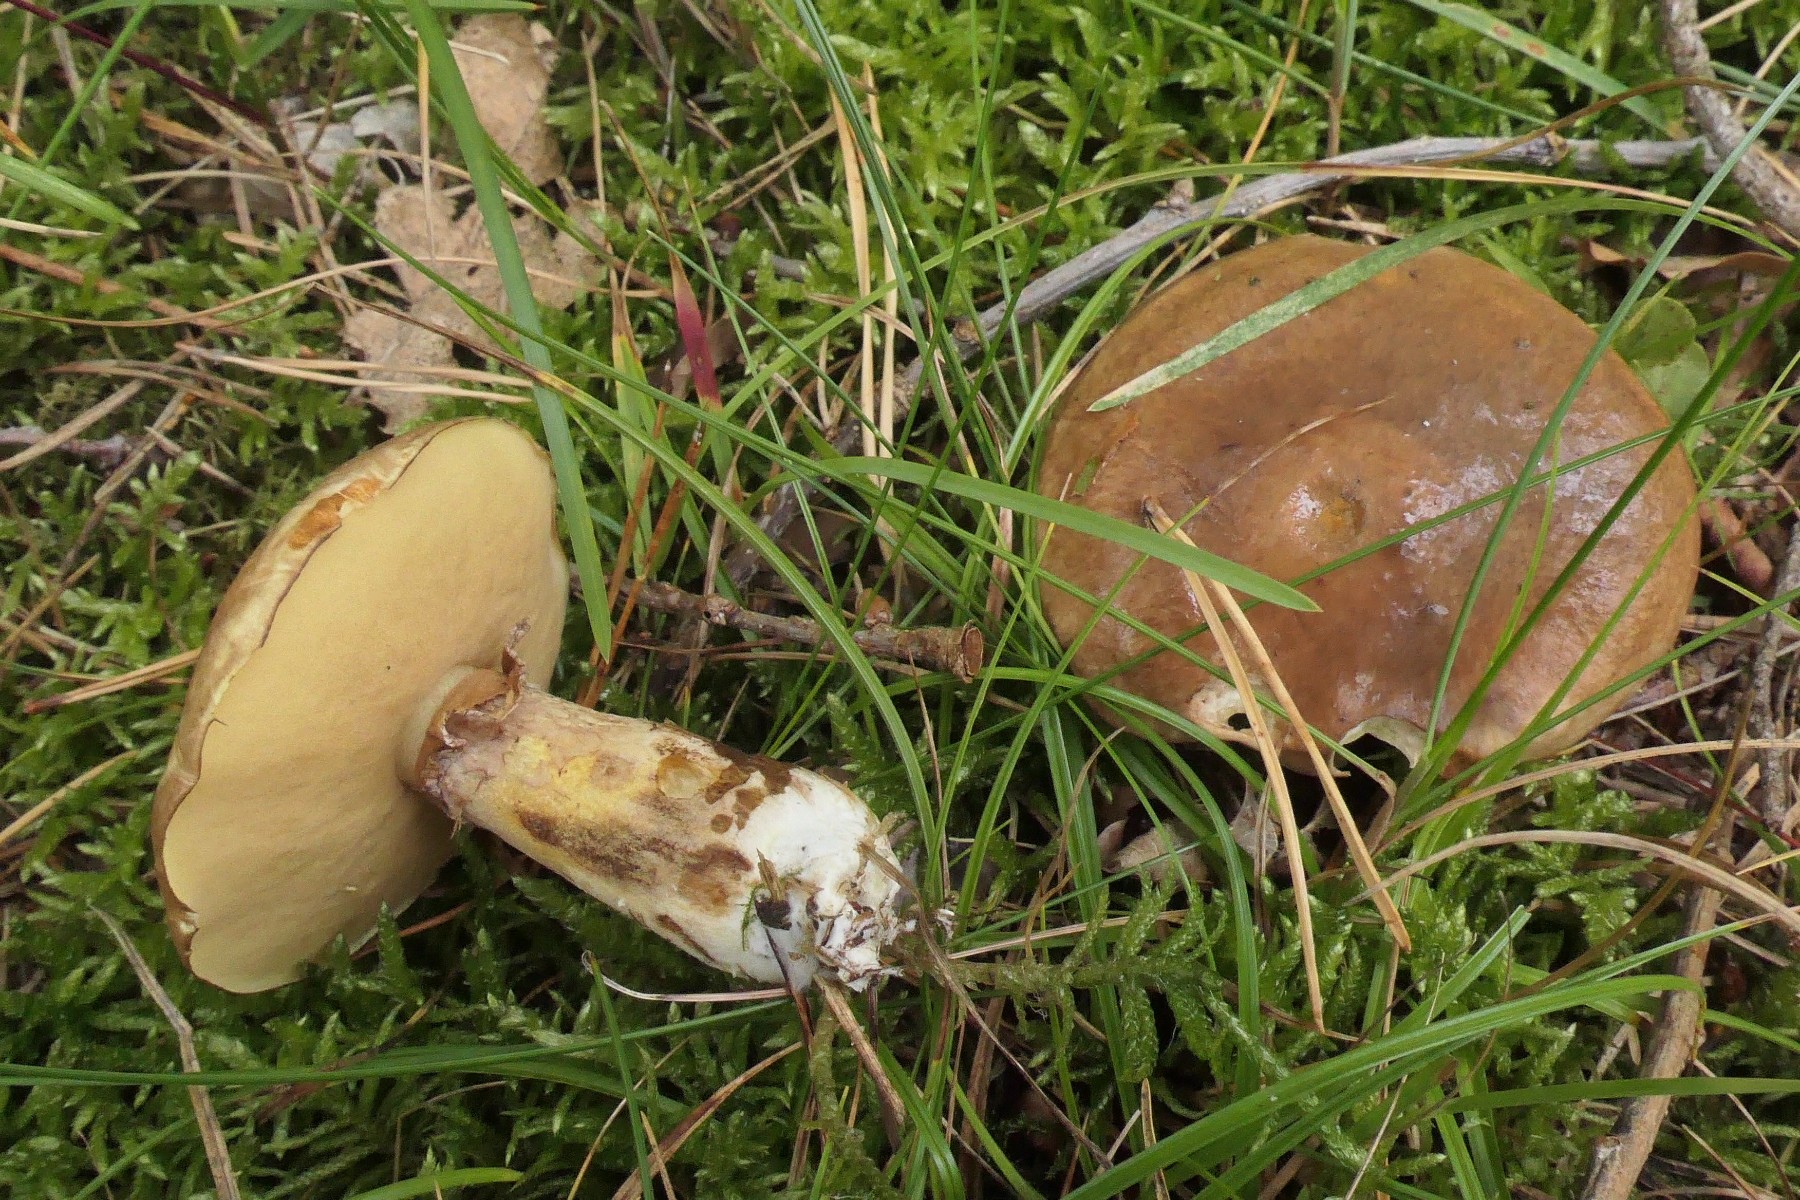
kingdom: Fungi
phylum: Basidiomycota
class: Agaricomycetes
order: Boletales
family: Suillaceae
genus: Suillus
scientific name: Suillus luteus
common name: brungul slimrørhat
